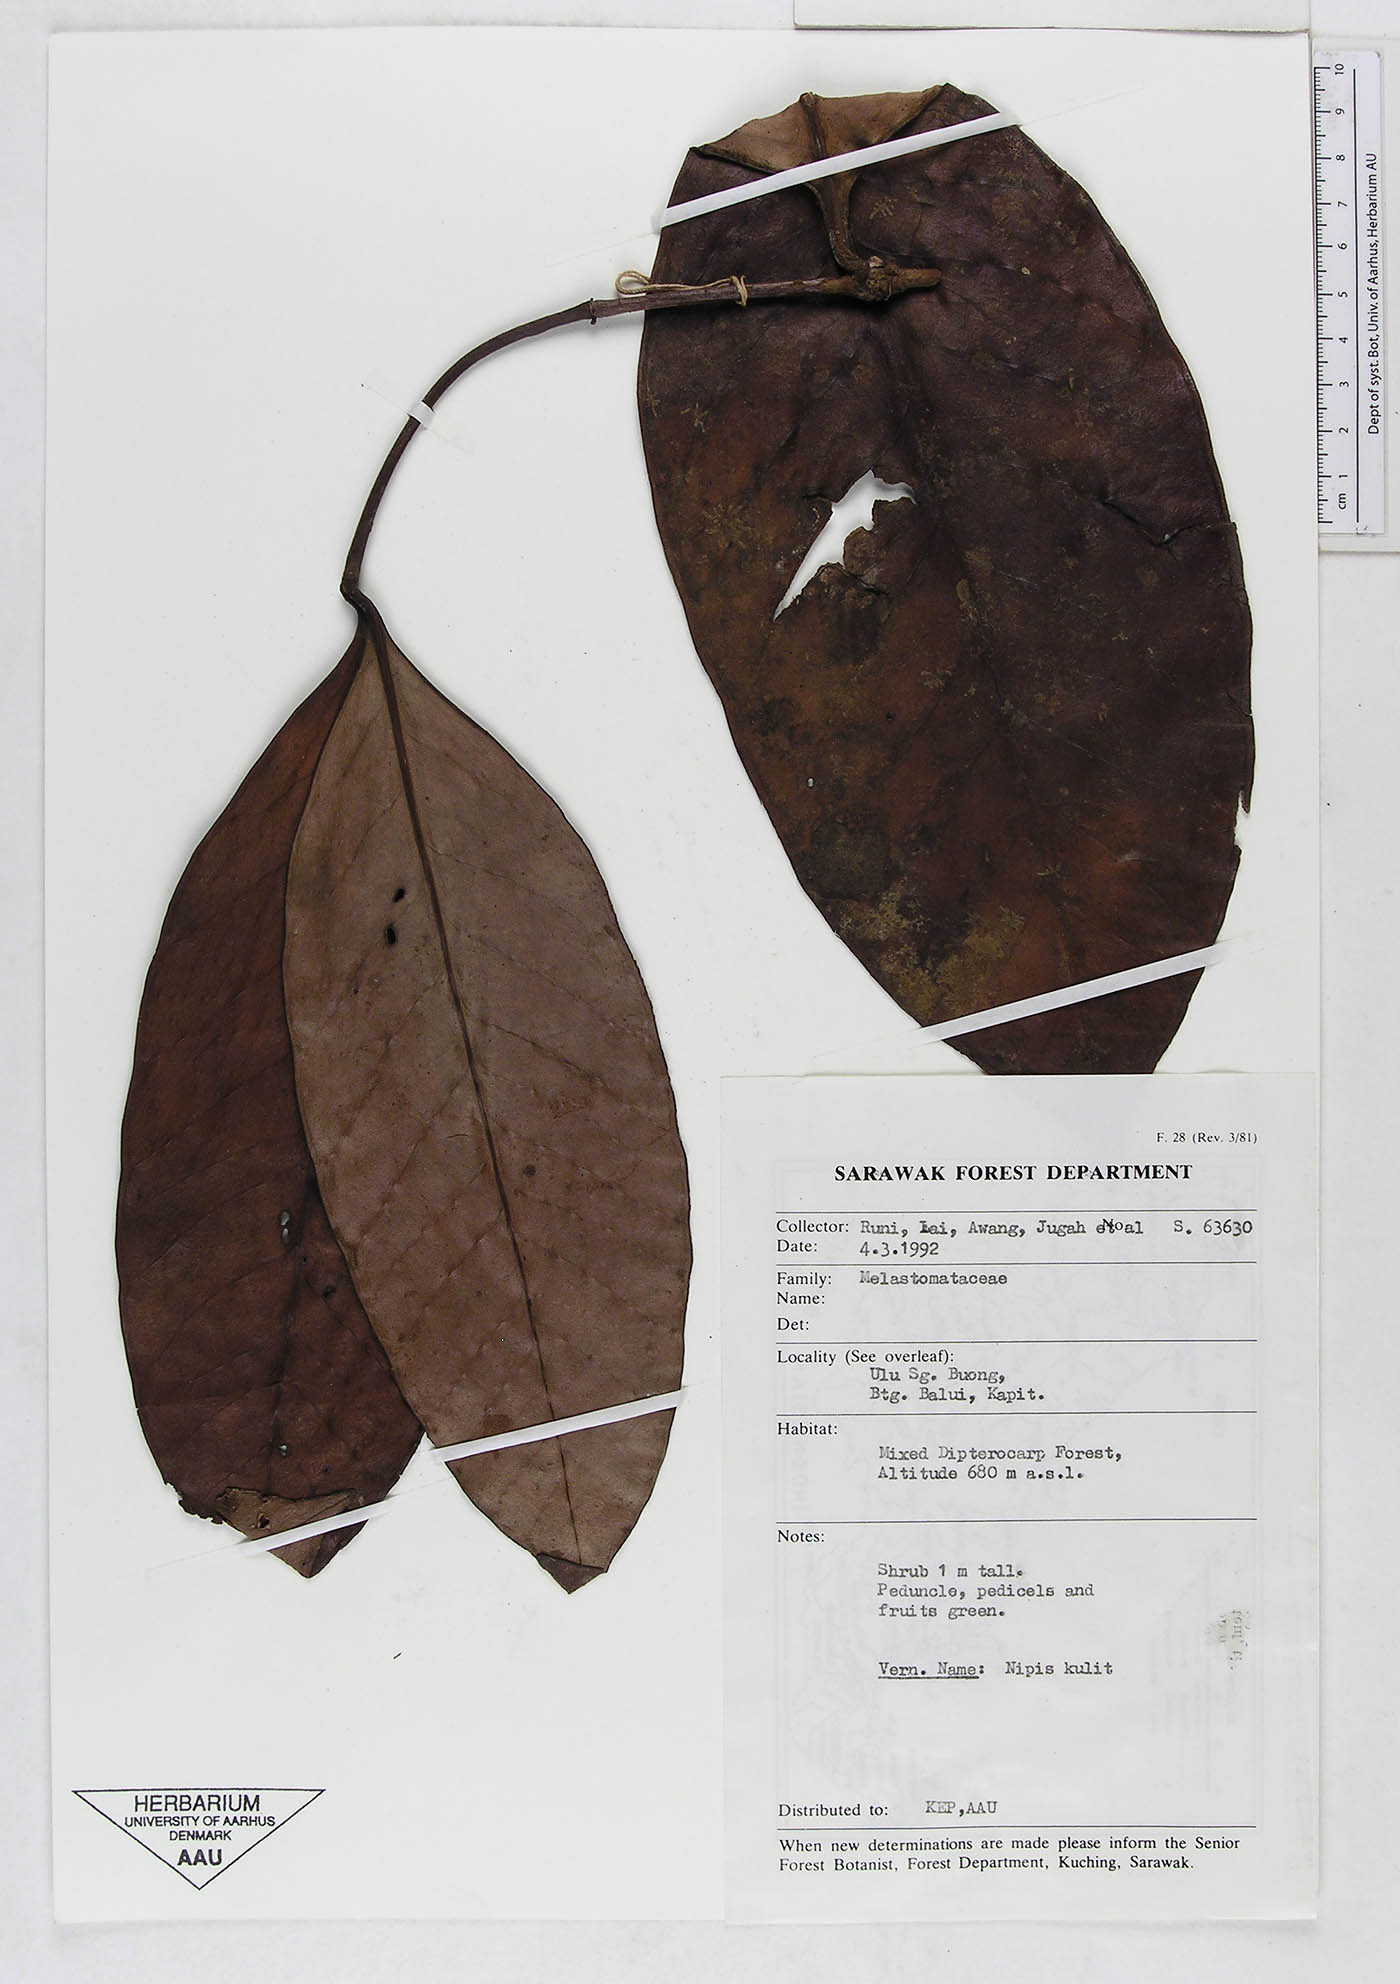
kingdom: Plantae
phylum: Tracheophyta
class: Magnoliopsida
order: Myrtales
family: Melastomataceae
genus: Memecylon
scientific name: Memecylon
